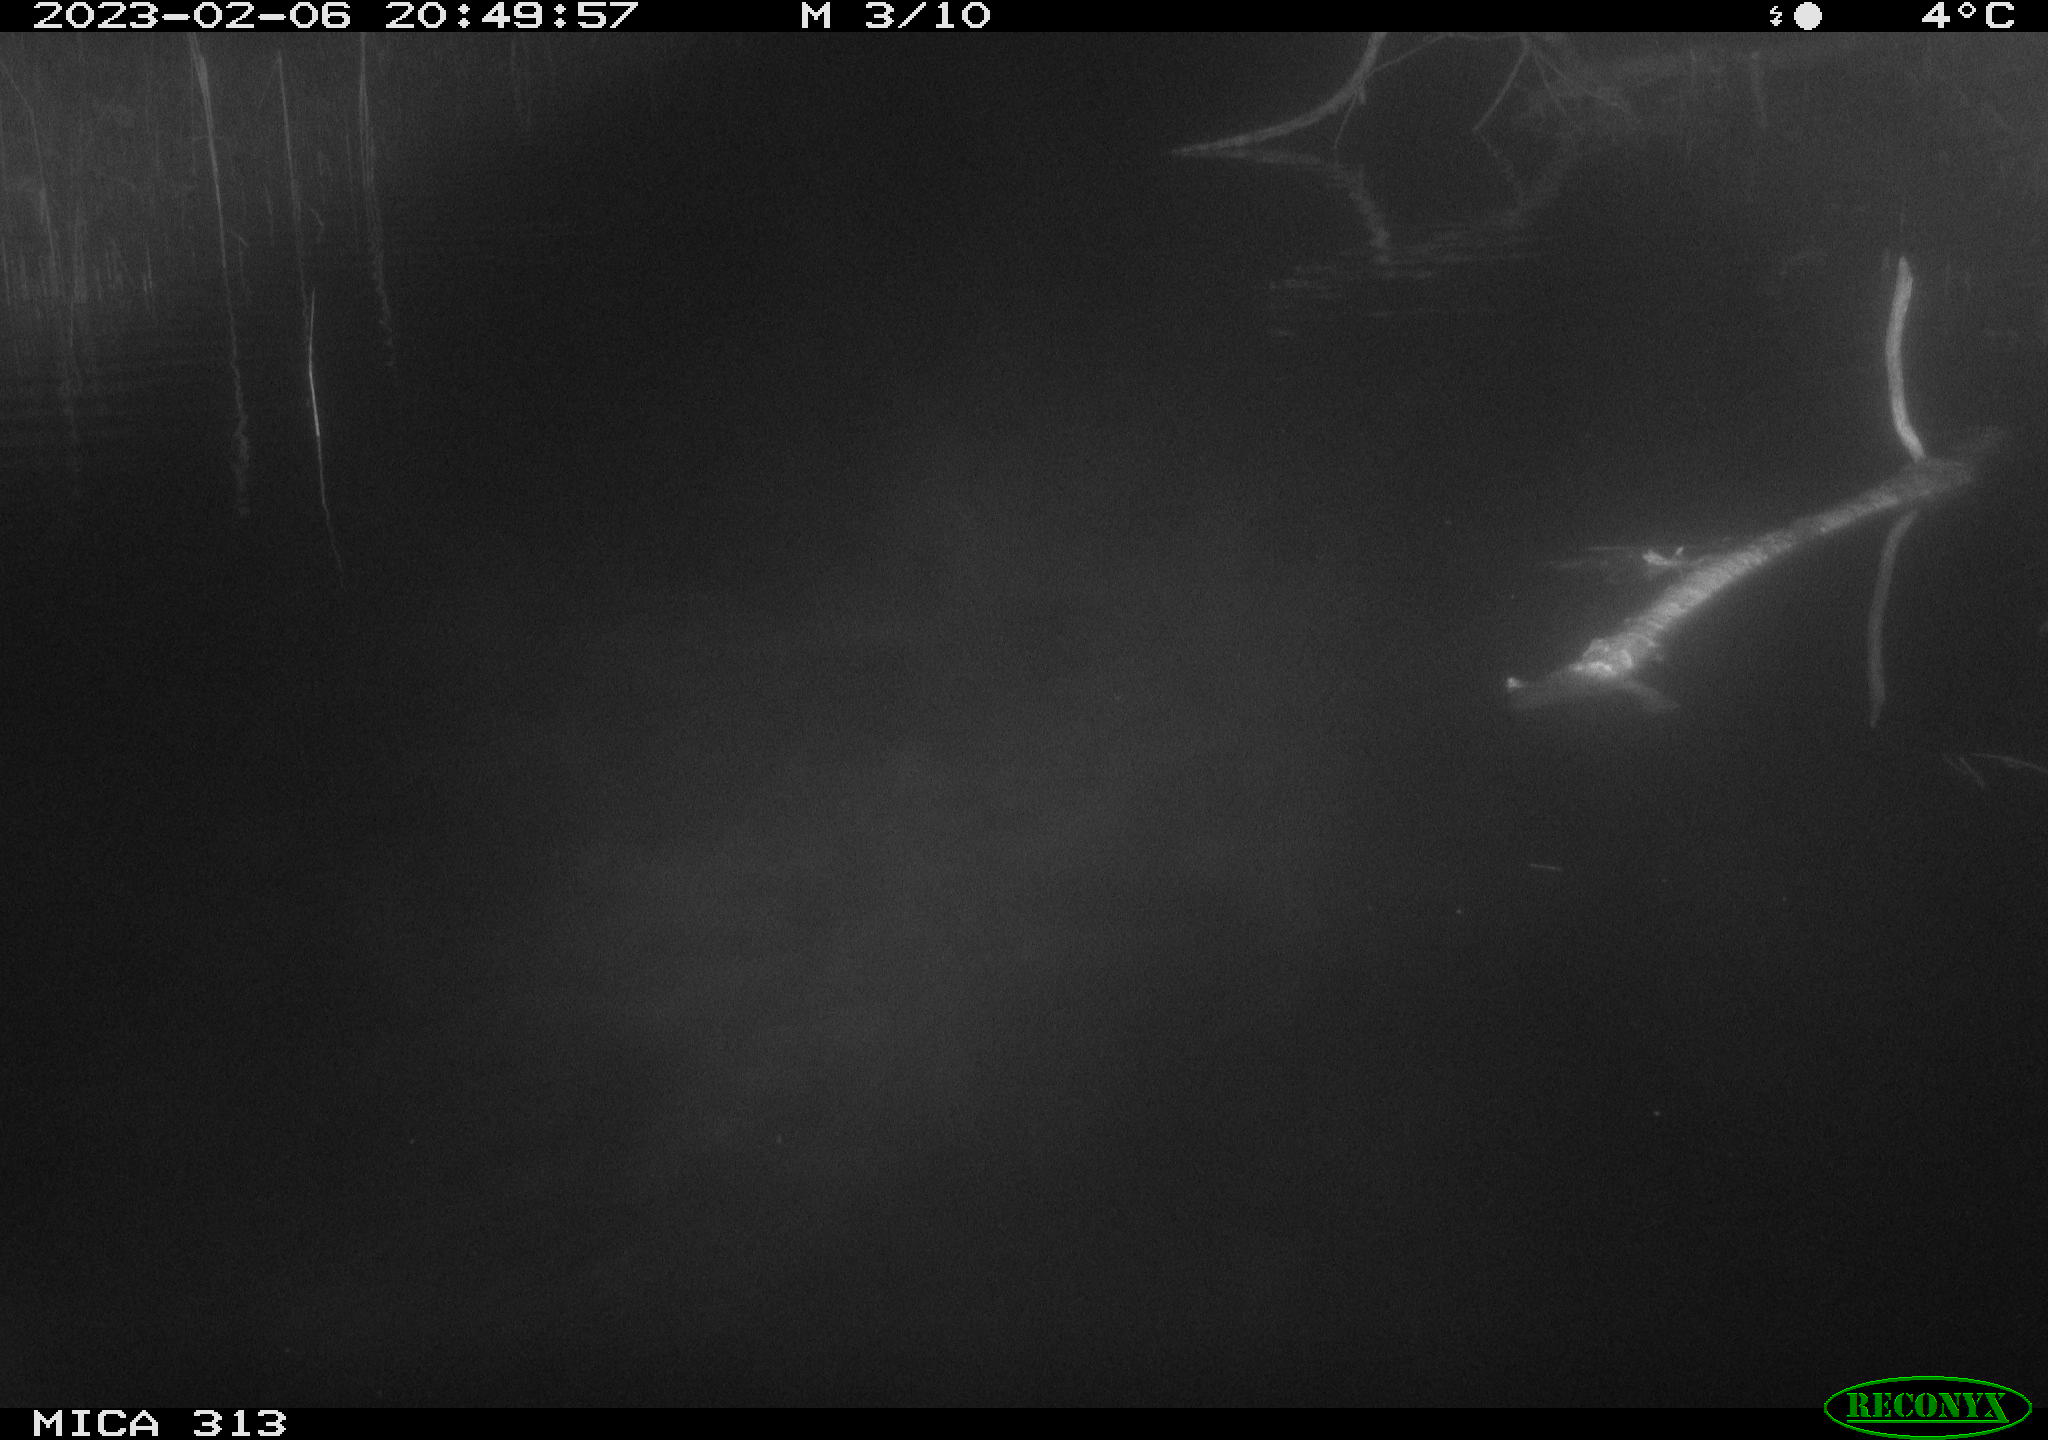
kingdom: Animalia
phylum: Chordata
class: Aves
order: Gruiformes
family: Rallidae
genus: Gallinula
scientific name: Gallinula chloropus
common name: Common moorhen
